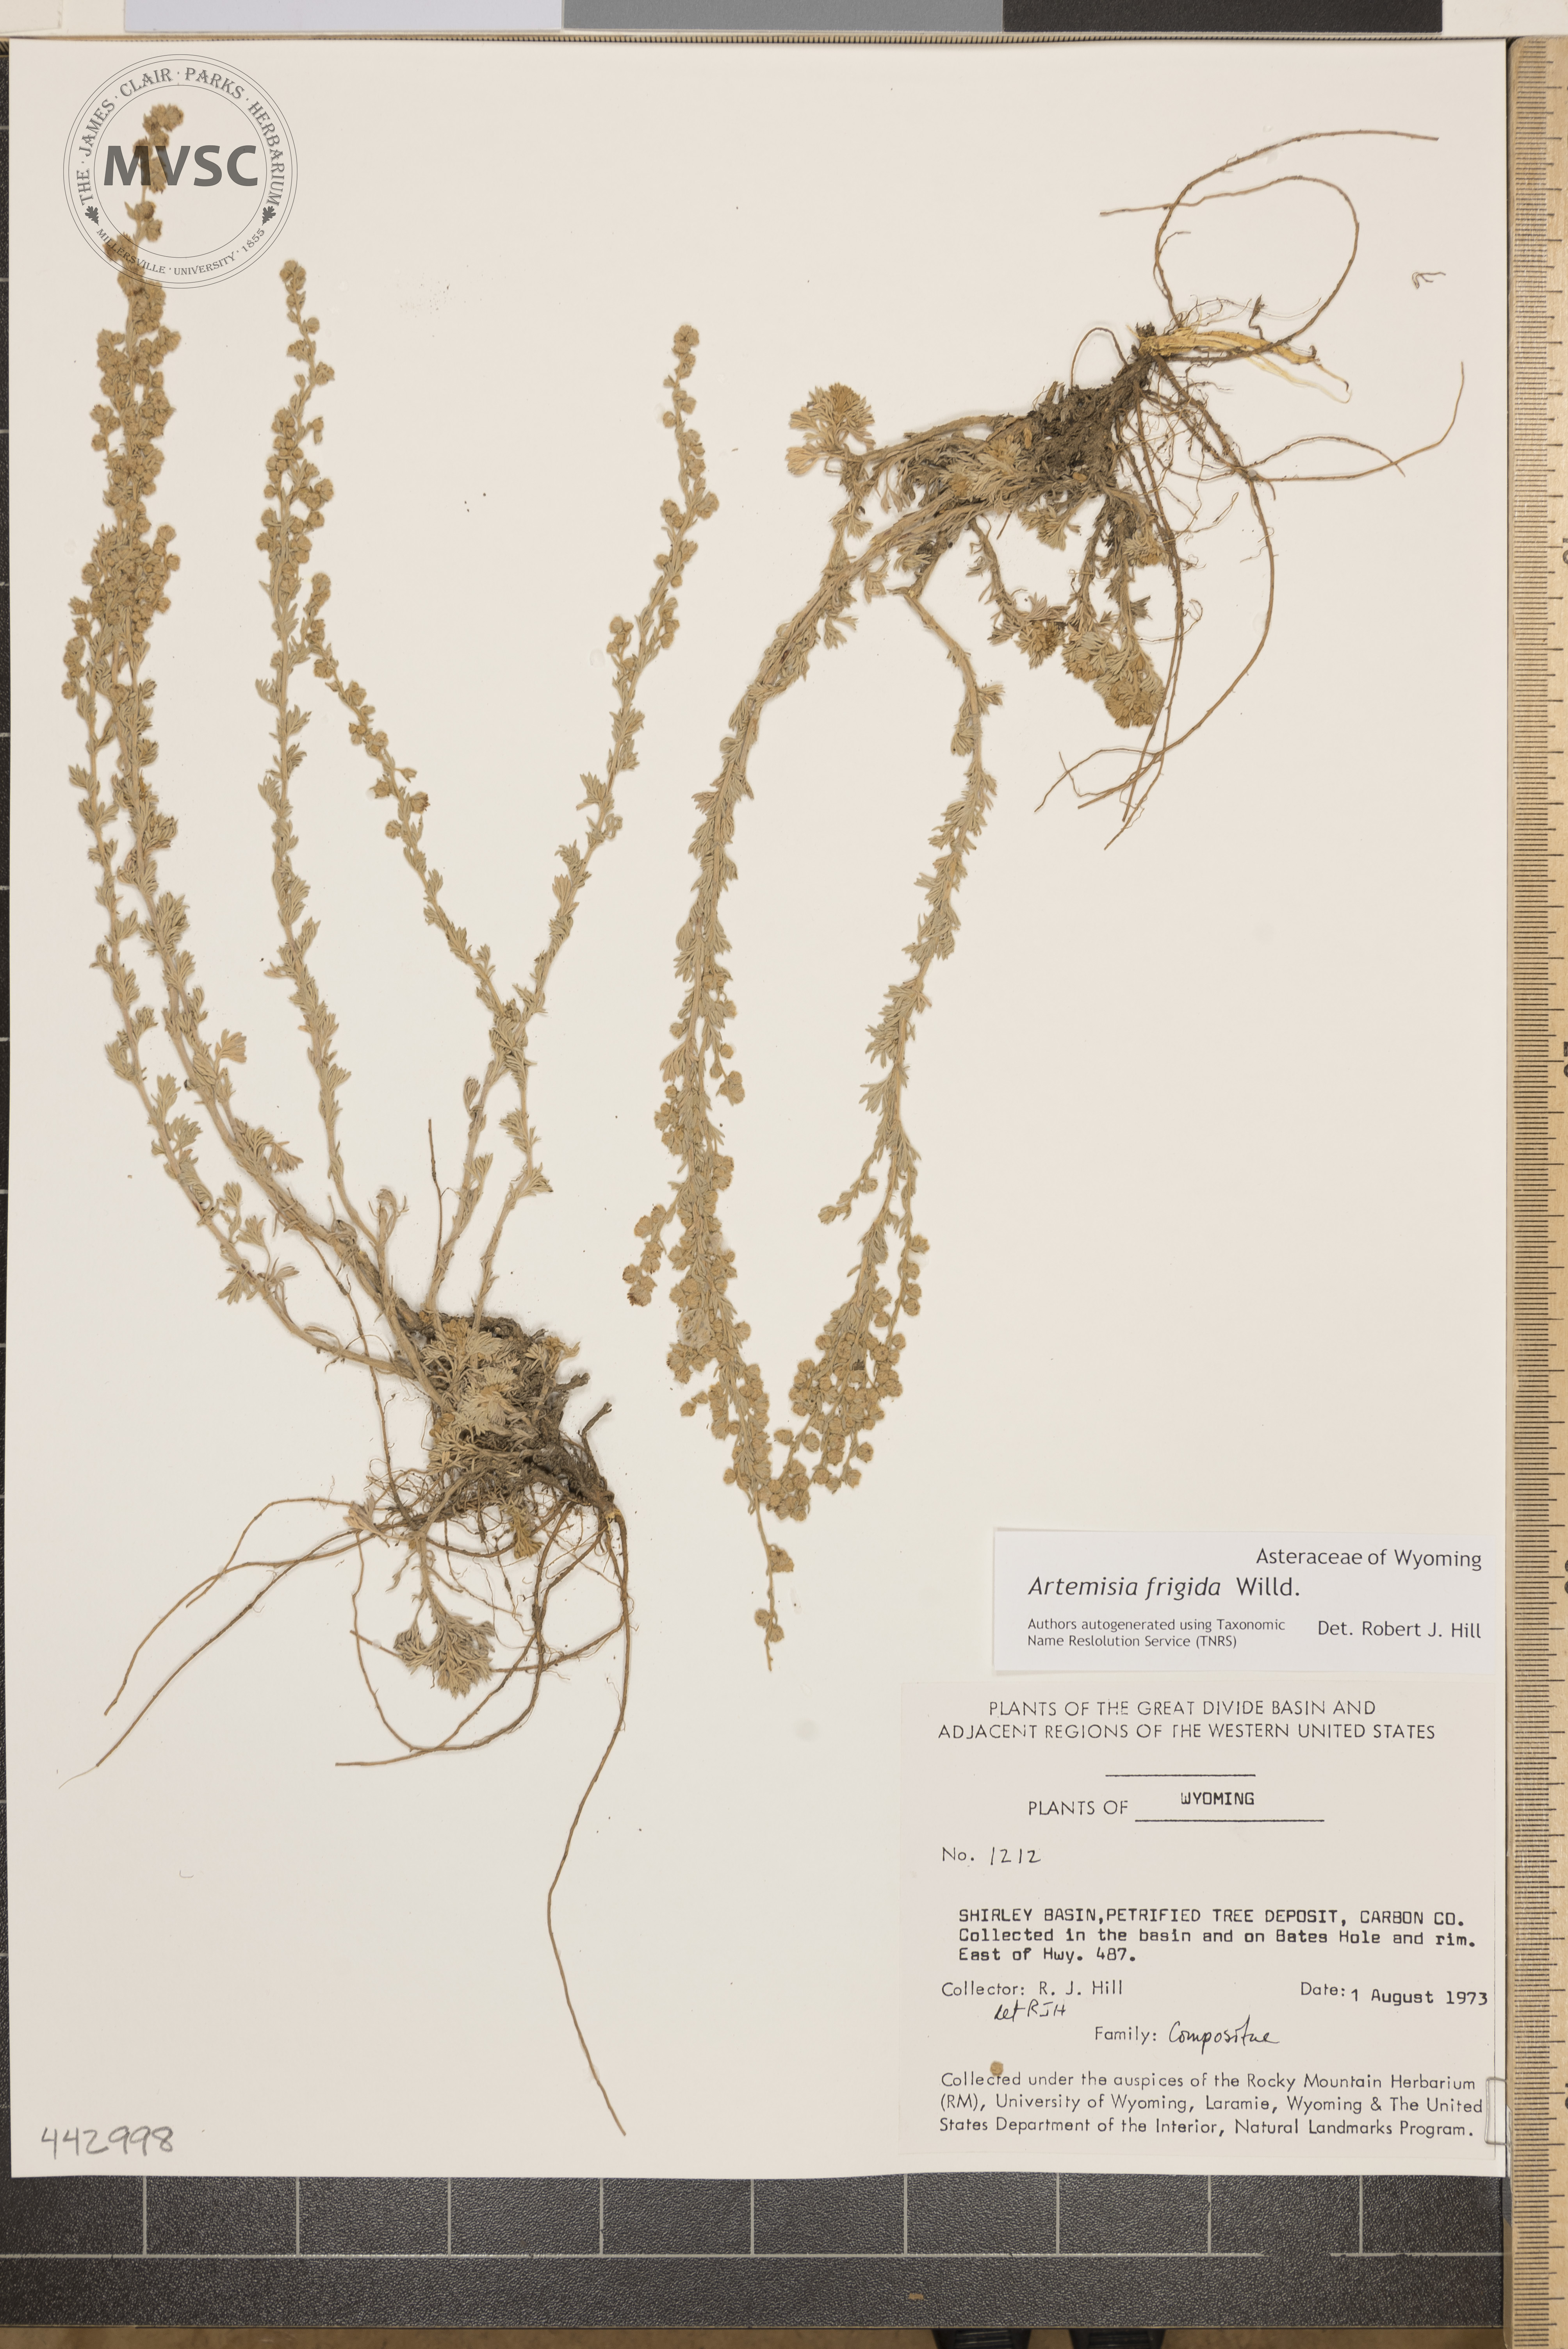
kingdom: Plantae
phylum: Tracheophyta
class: Magnoliopsida
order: Asterales
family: Asteraceae
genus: Artemisia
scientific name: Artemisia frigida
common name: Prairie sagewort
